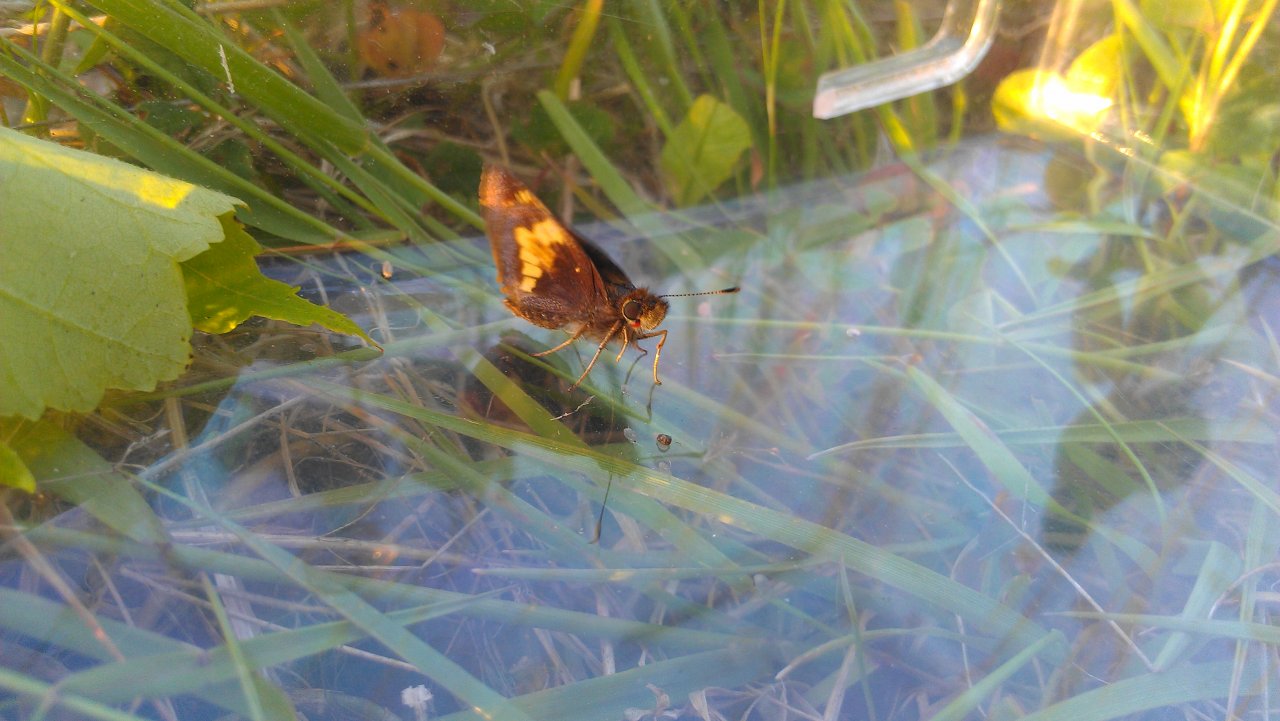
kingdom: Animalia
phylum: Arthropoda
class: Insecta
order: Lepidoptera
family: Hesperiidae
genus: Lon
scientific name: Lon hobomok
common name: Hobomok Skipper
